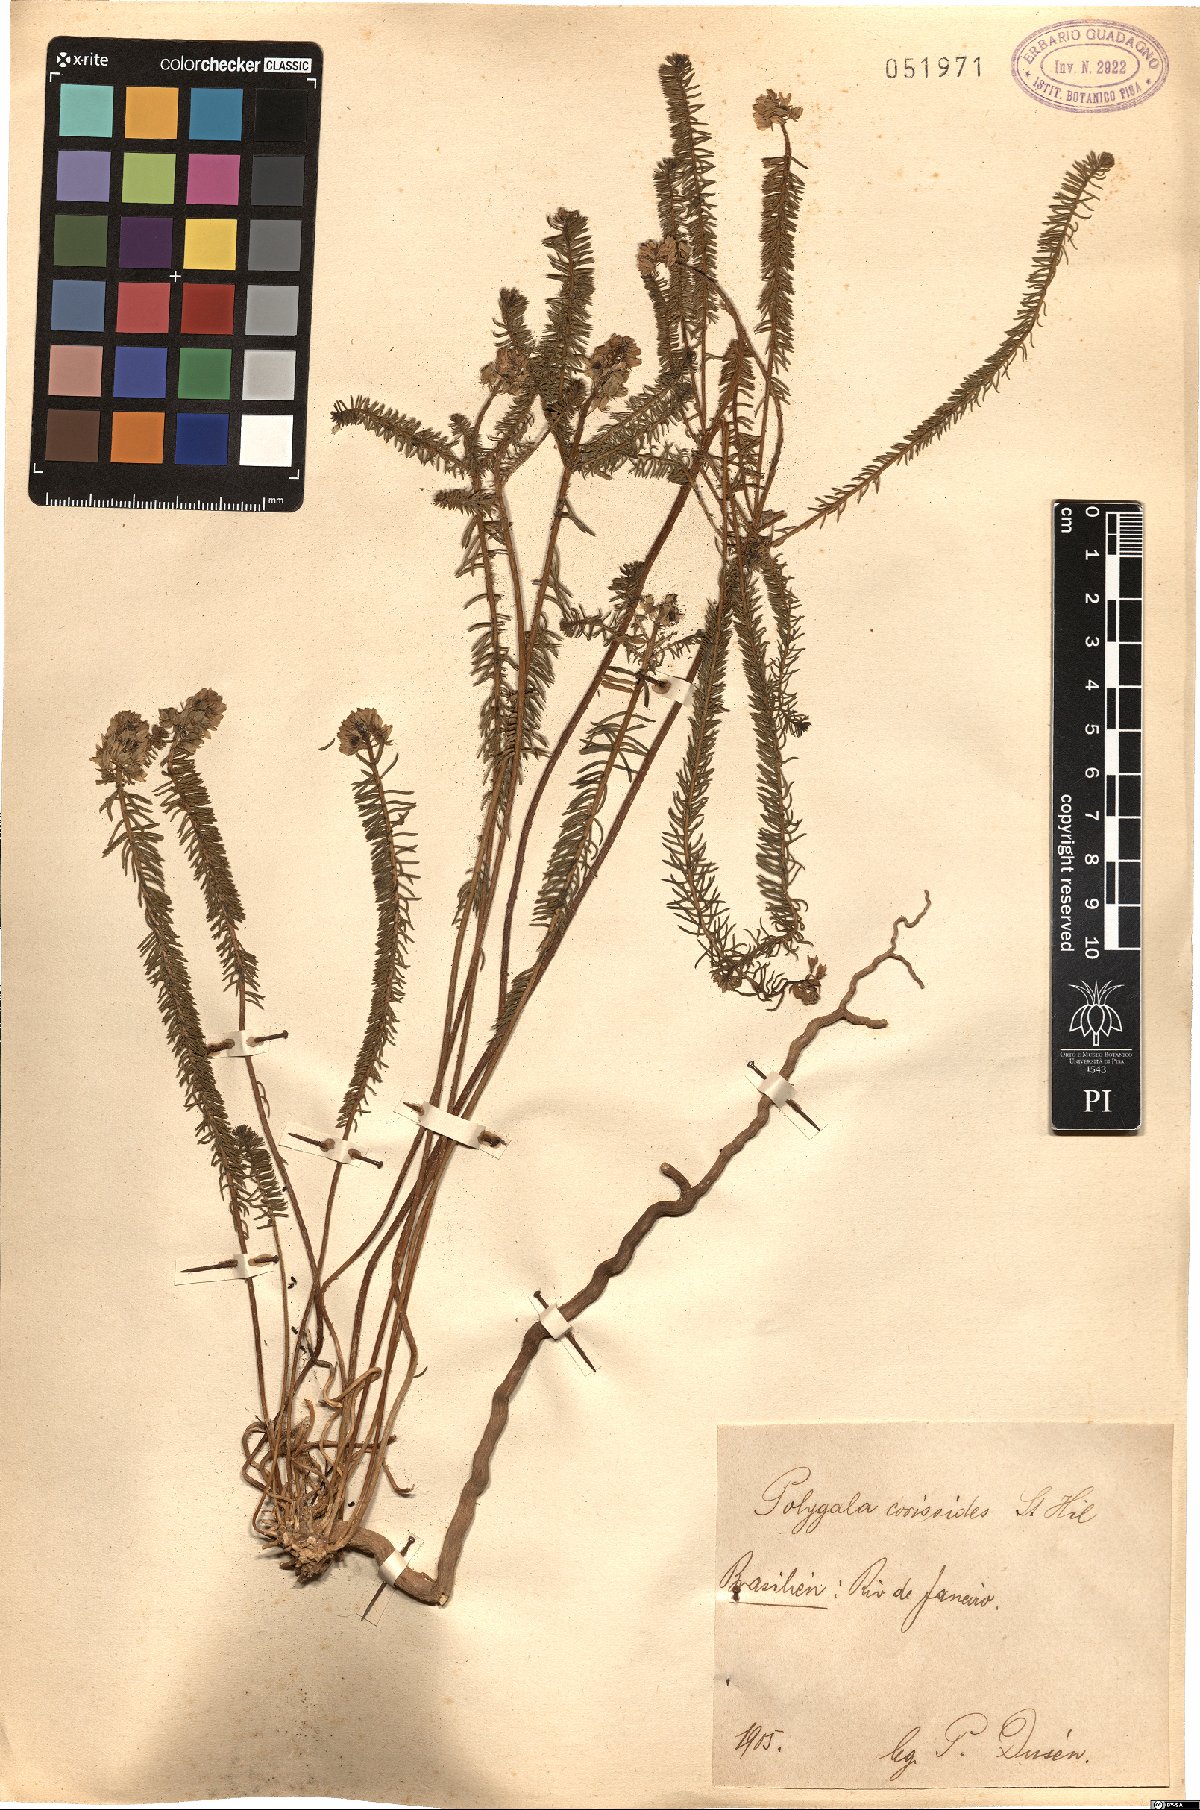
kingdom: Plantae
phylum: Tracheophyta
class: Magnoliopsida
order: Fabales
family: Polygalaceae
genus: Polygala
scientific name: Polygala cyparissias
